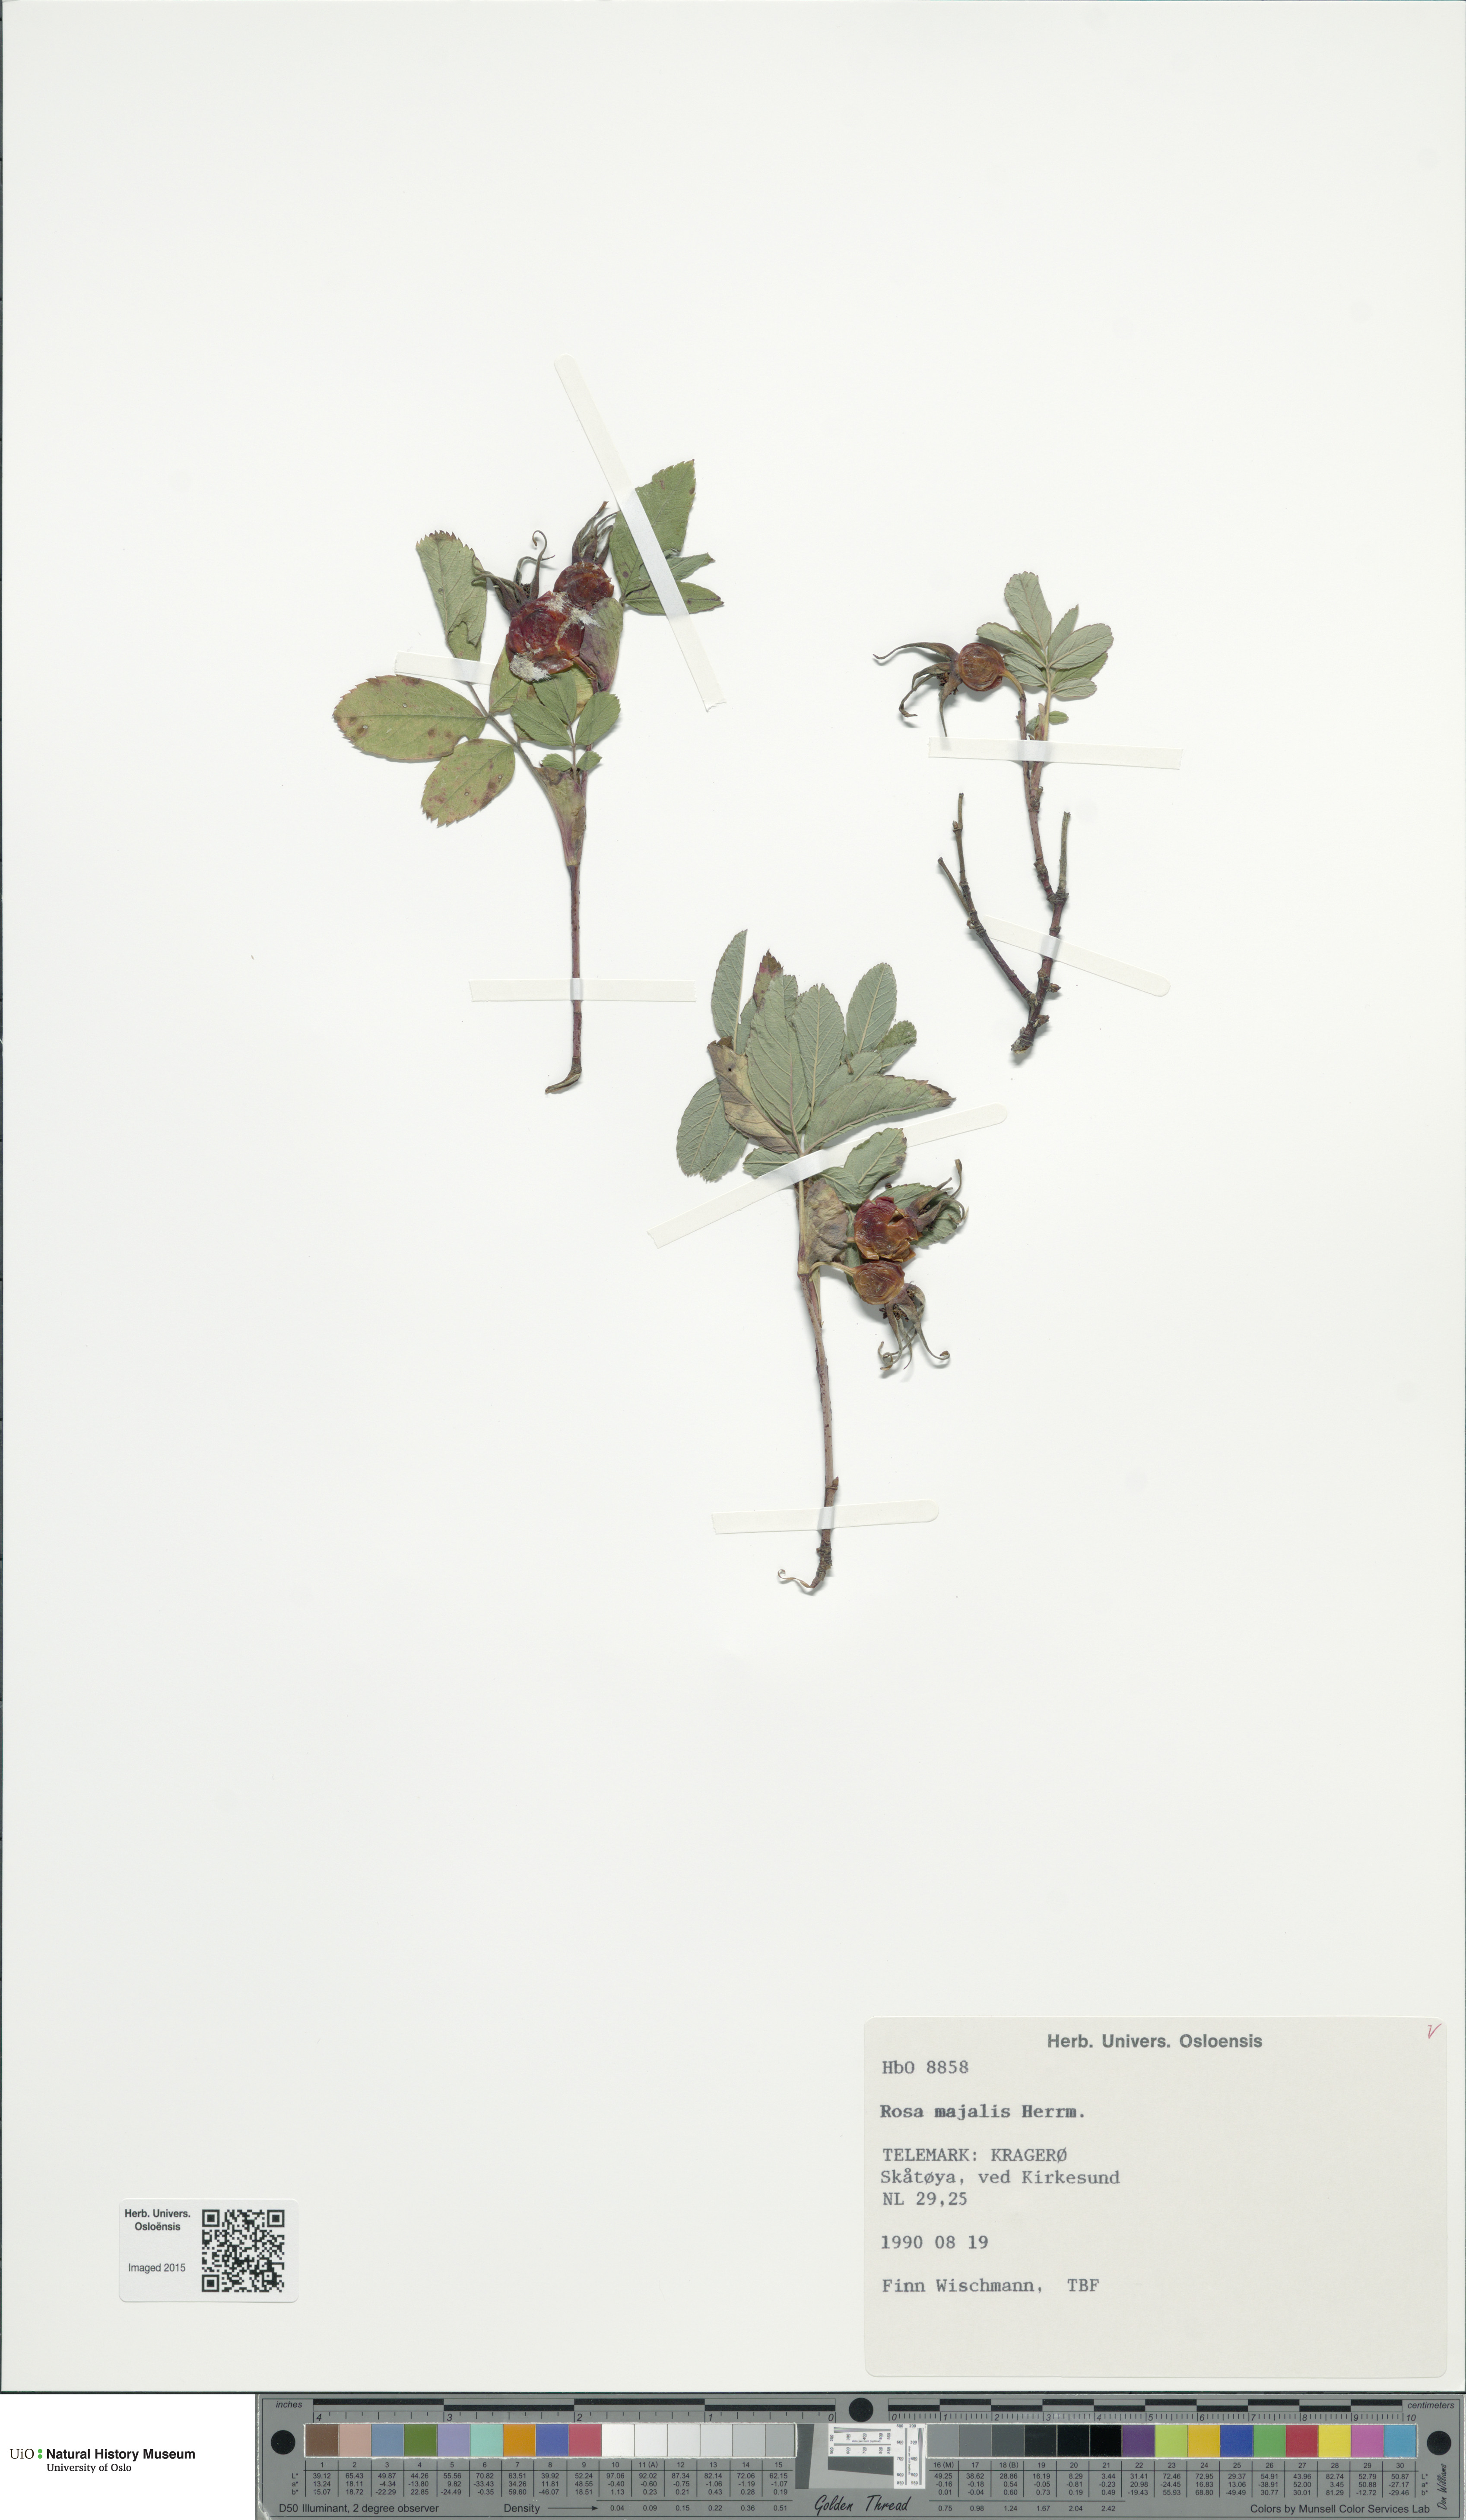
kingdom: Plantae
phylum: Tracheophyta
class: Magnoliopsida
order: Rosales
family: Rosaceae
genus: Rosa
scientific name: Rosa majalis
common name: Cinnamon rose
